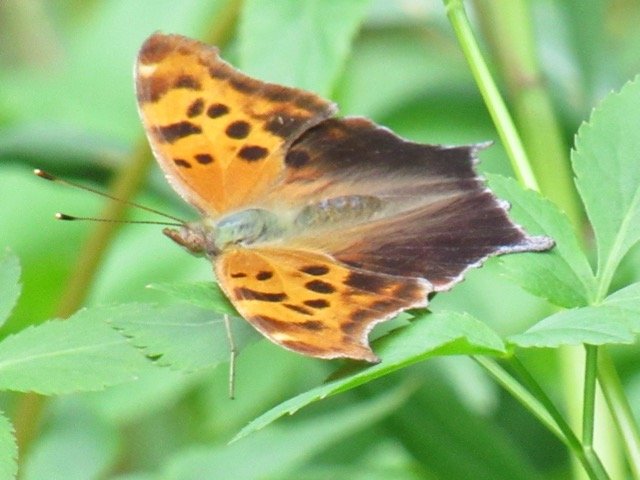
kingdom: Animalia
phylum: Arthropoda
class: Insecta
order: Lepidoptera
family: Nymphalidae
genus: Polygonia
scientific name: Polygonia interrogationis
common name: Question Mark
